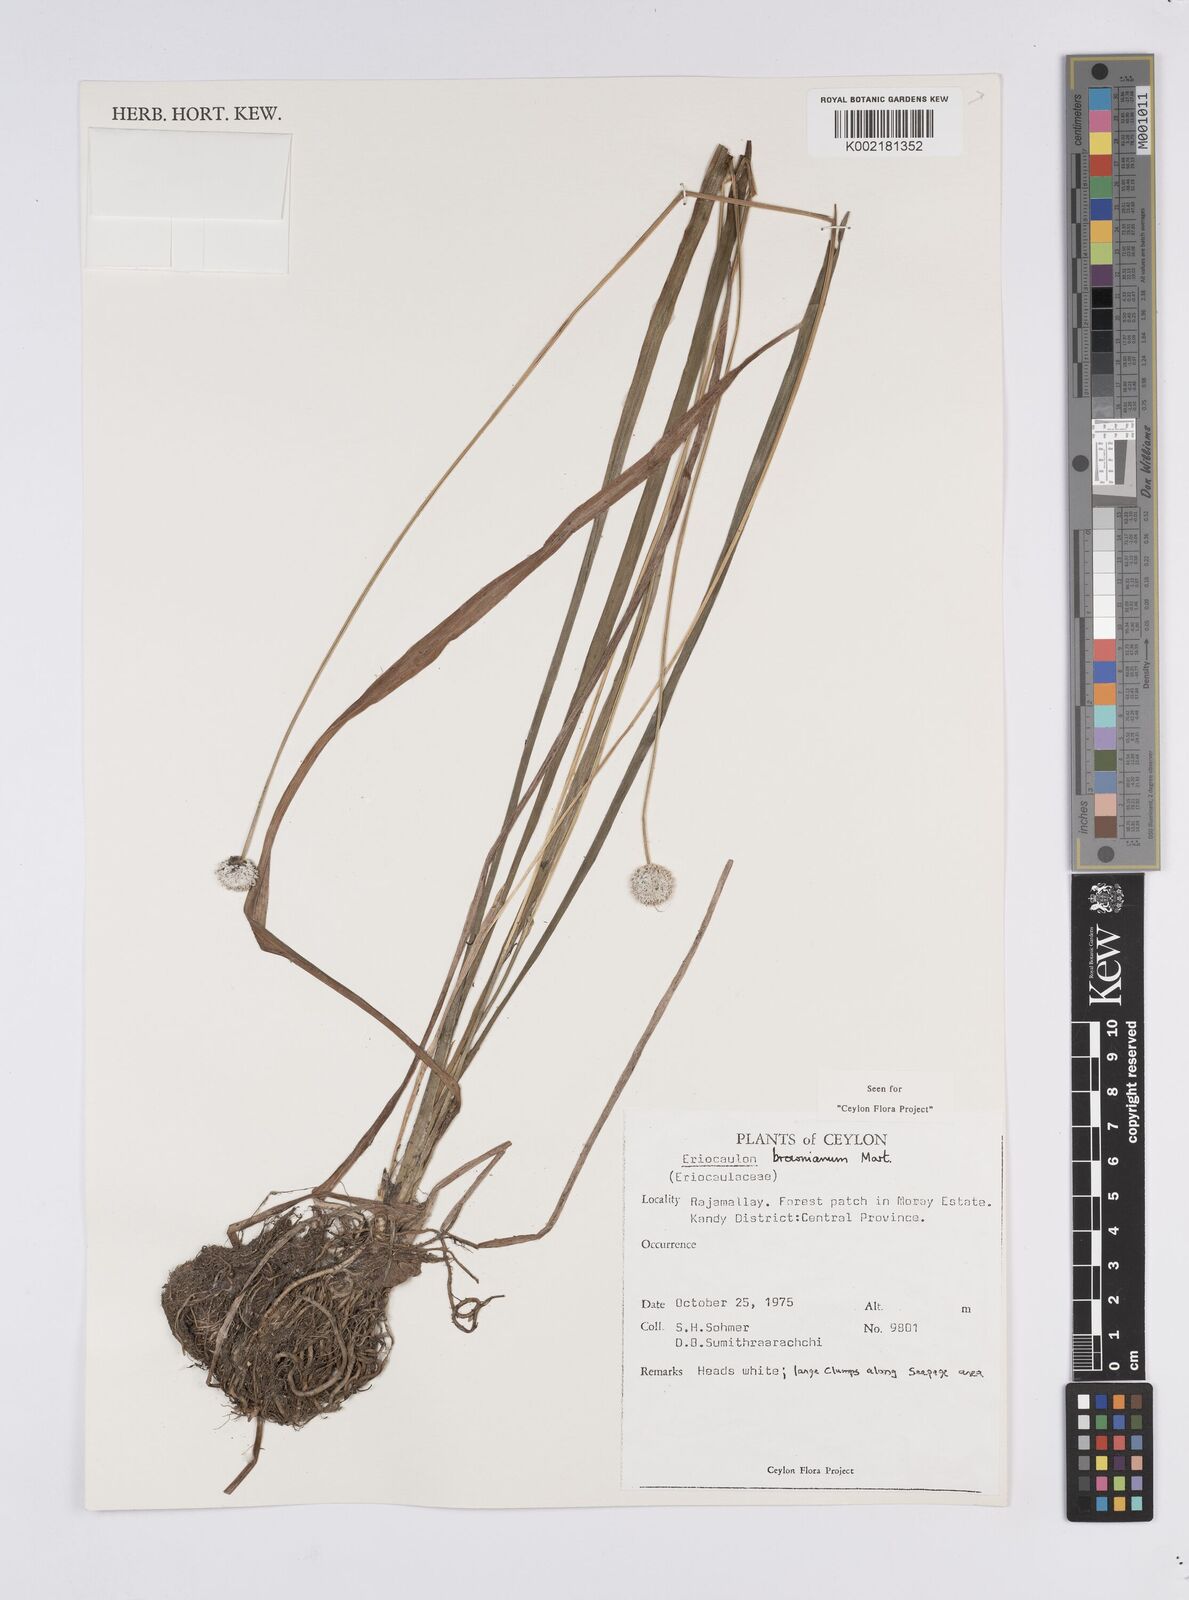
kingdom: Plantae
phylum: Tracheophyta
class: Liliopsida
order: Poales
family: Eriocaulaceae
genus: Eriocaulon
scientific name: Eriocaulon brownianum
